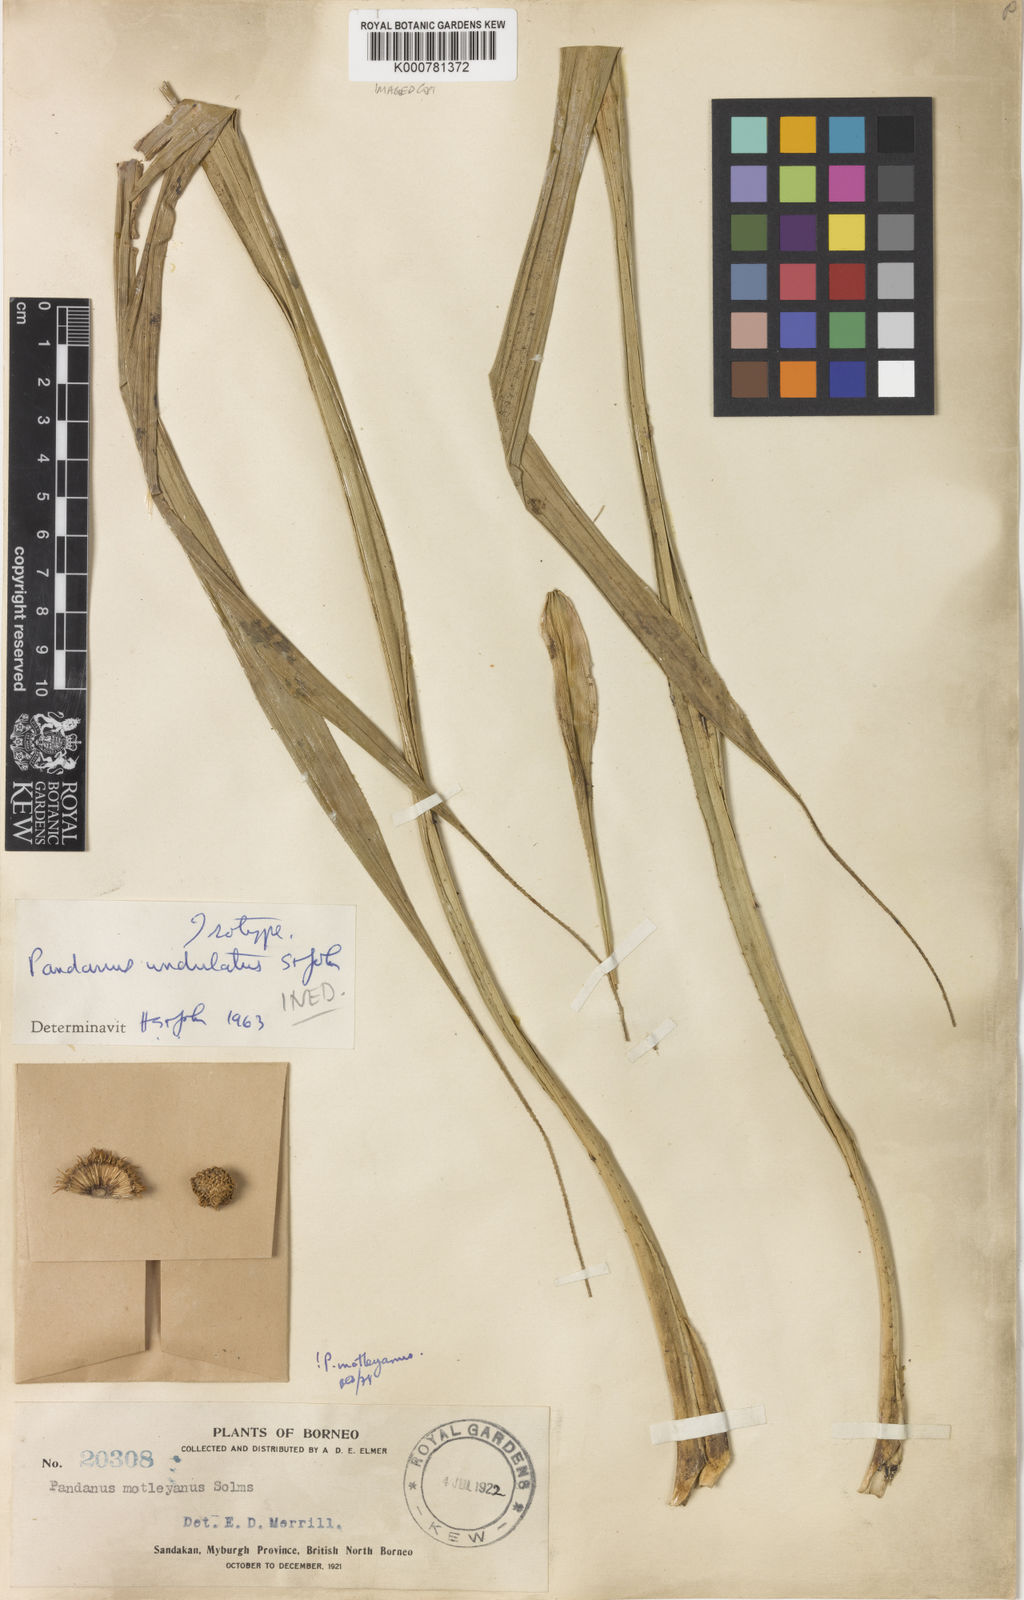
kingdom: Plantae
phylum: Tracheophyta
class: Liliopsida
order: Pandanales
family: Pandanaceae
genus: Pandanus
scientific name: Pandanus yvanii
